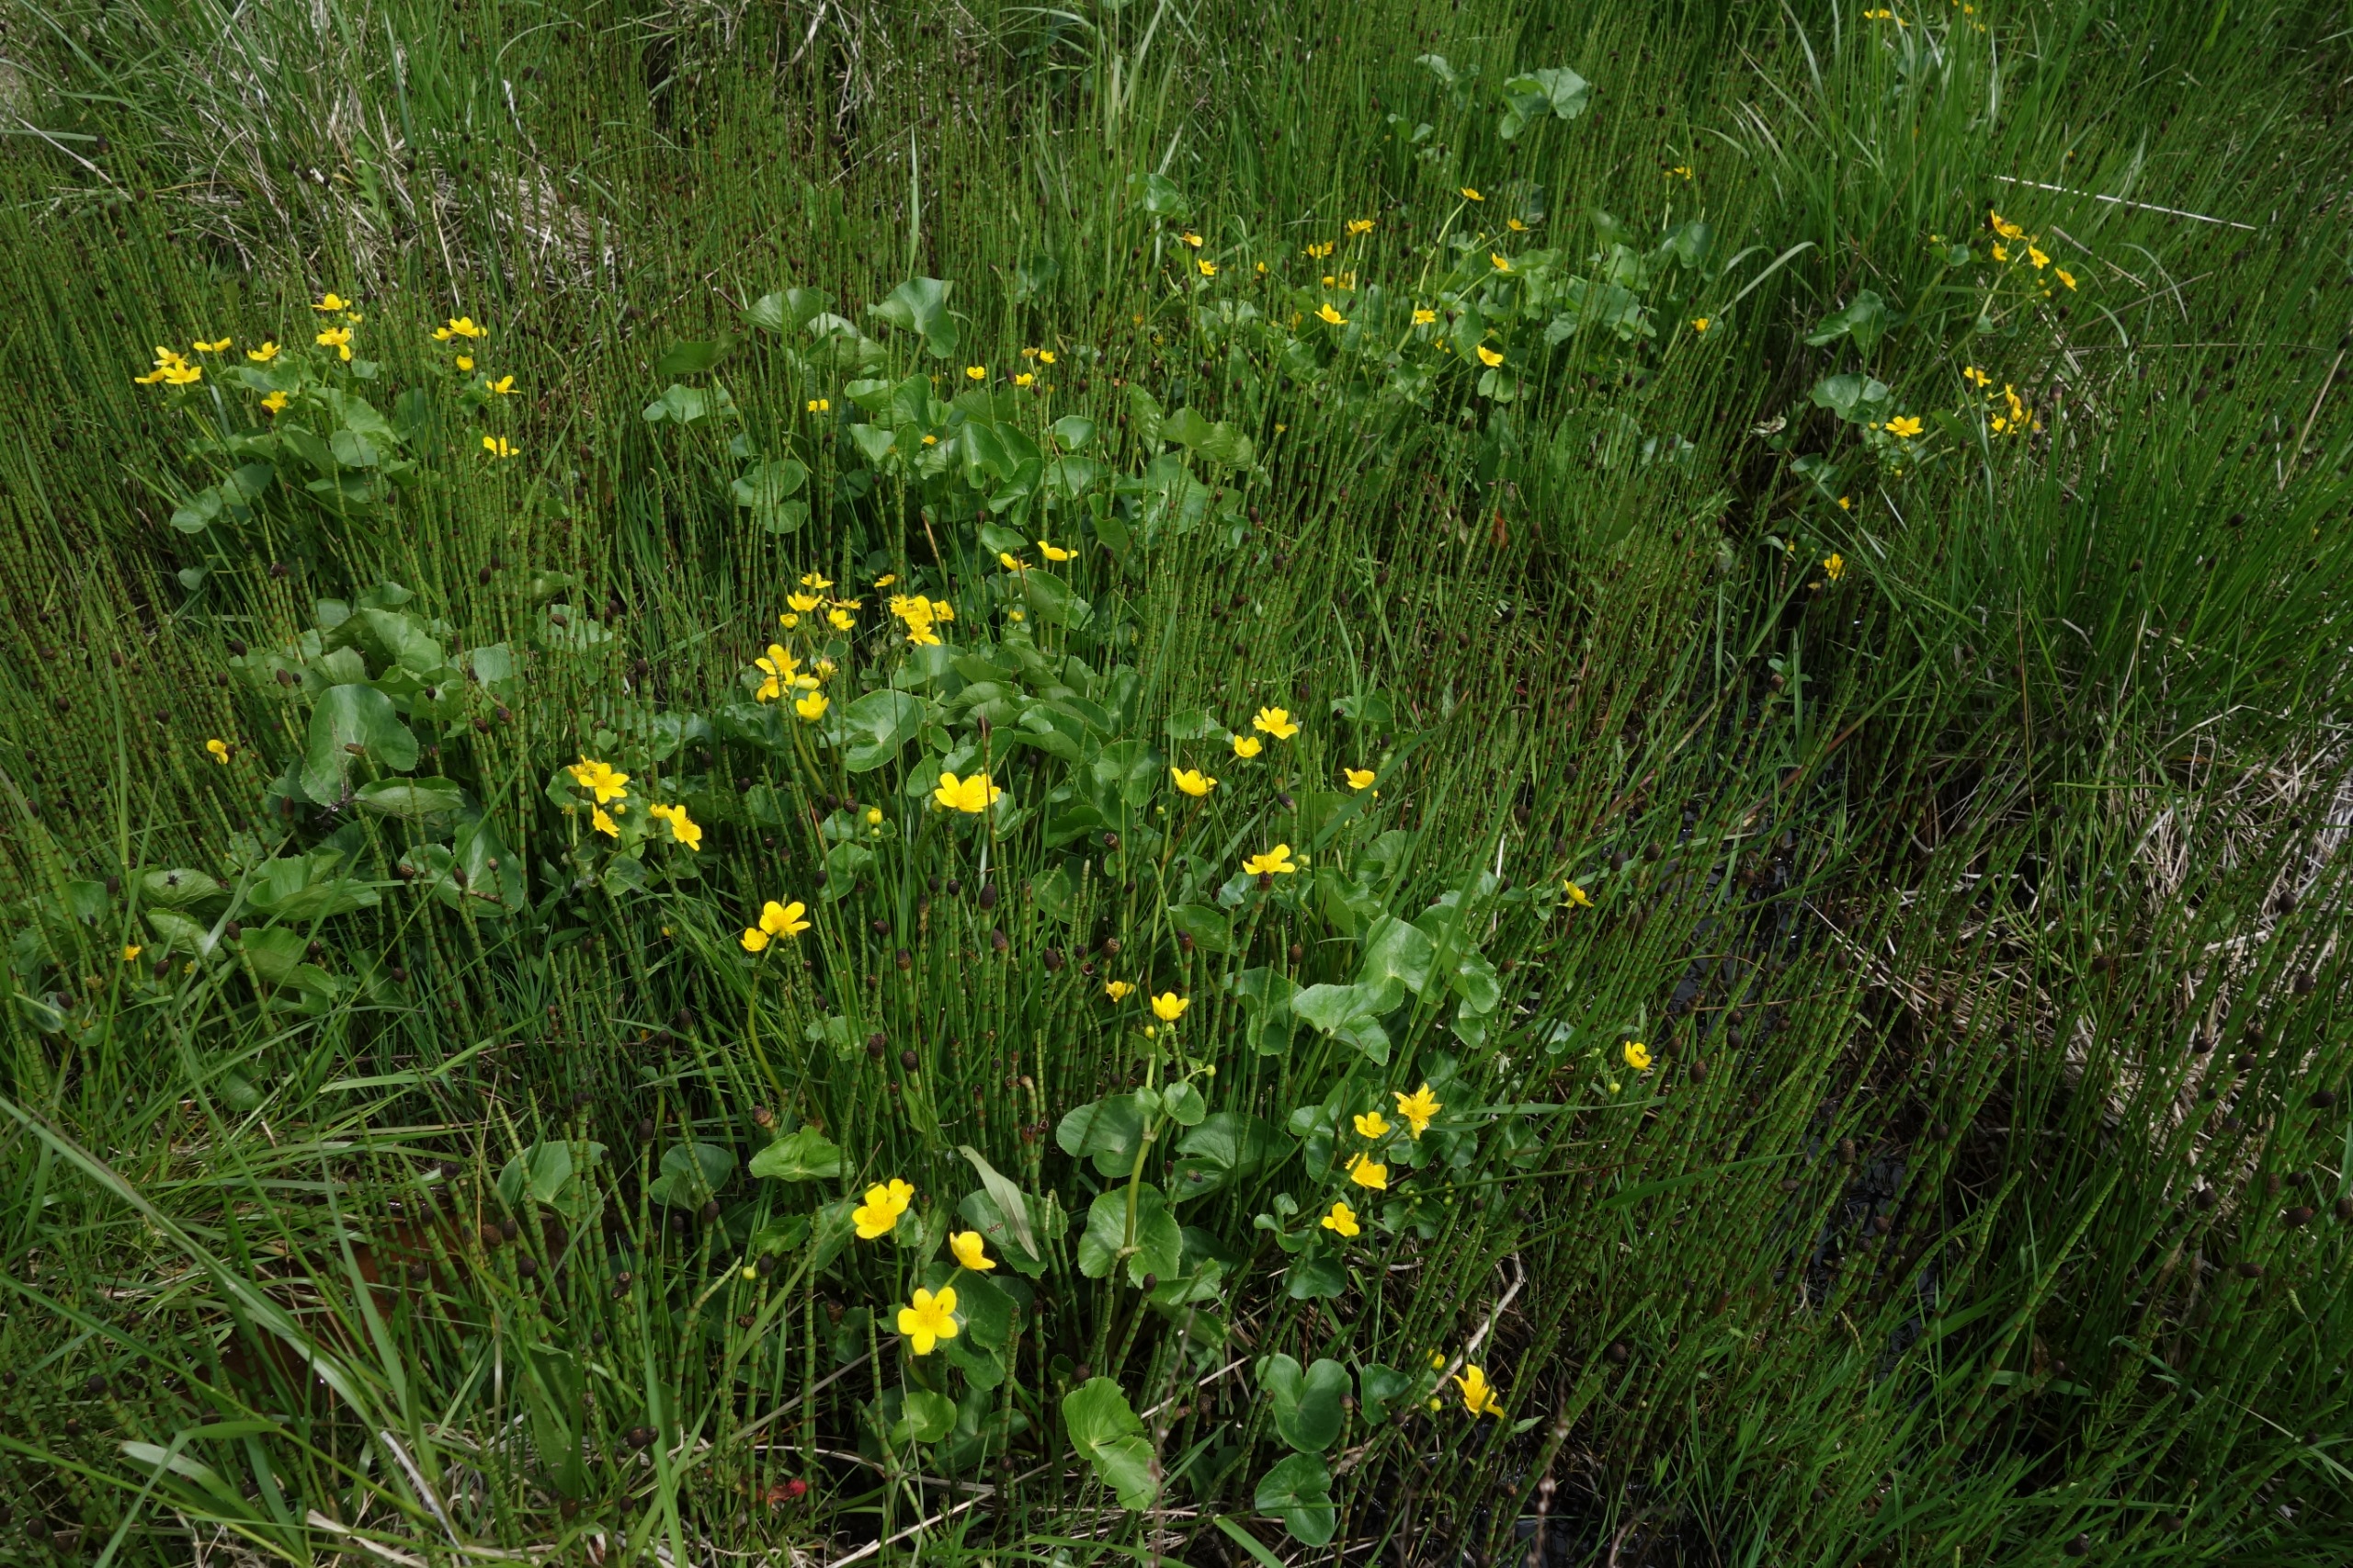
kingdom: Plantae
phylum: Tracheophyta
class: Magnoliopsida
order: Ranunculales
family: Ranunculaceae
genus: Caltha
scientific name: Caltha palustris
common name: Eng-kabbeleje
